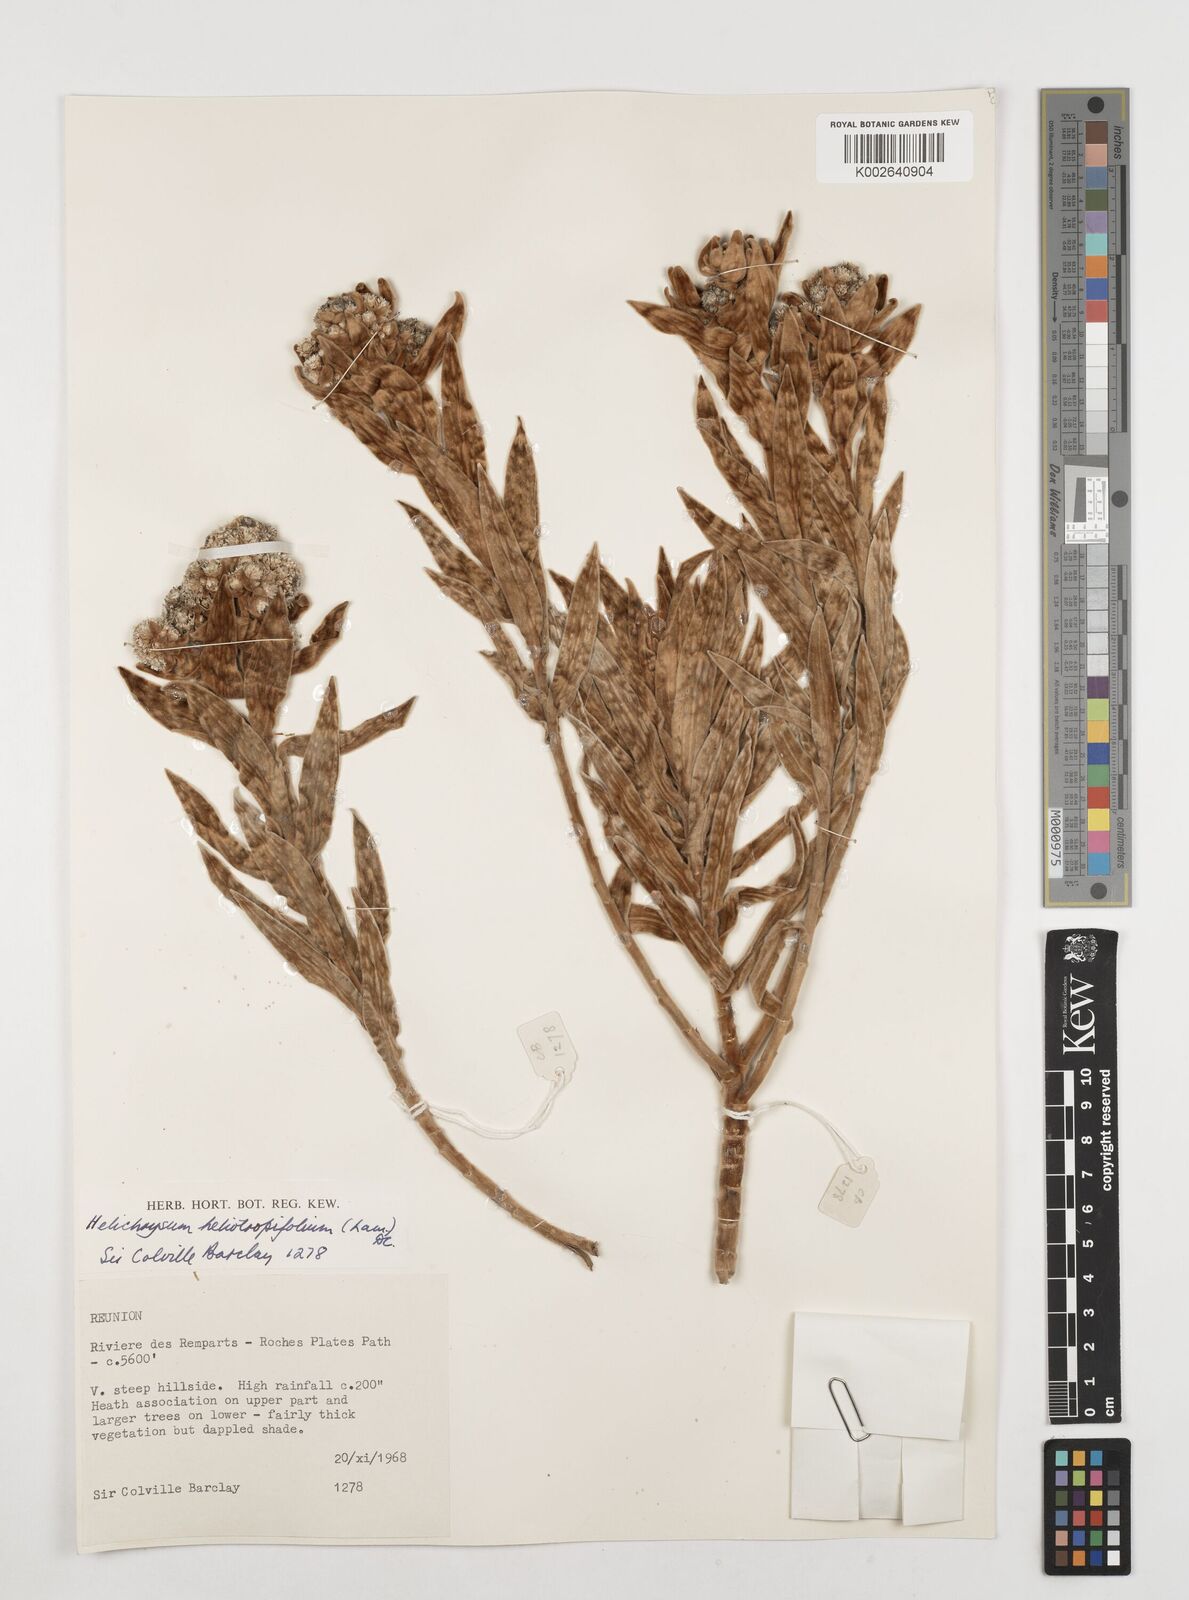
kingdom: Plantae
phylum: Tracheophyta
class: Magnoliopsida
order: Asterales
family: Asteraceae
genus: Helichrysum
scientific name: Helichrysum heliotropifolium
